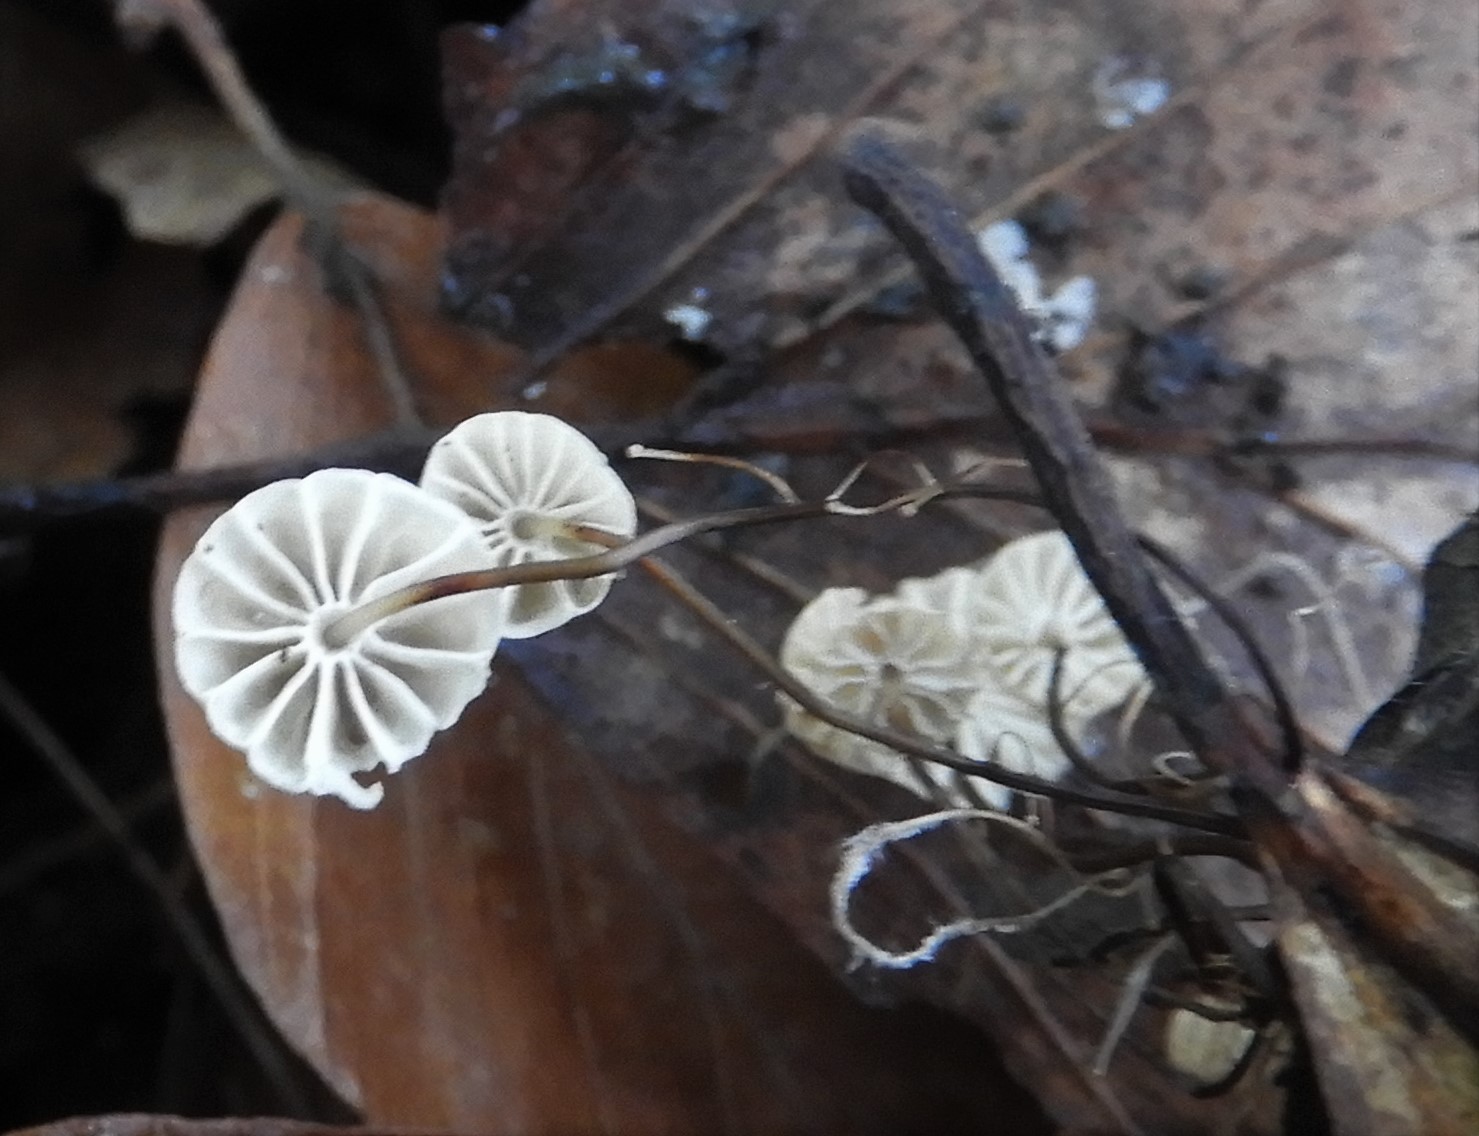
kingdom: Fungi
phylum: Basidiomycota
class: Agaricomycetes
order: Agaricales
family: Marasmiaceae
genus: Marasmius
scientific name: Marasmius rotula
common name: hjul-bruskhat
